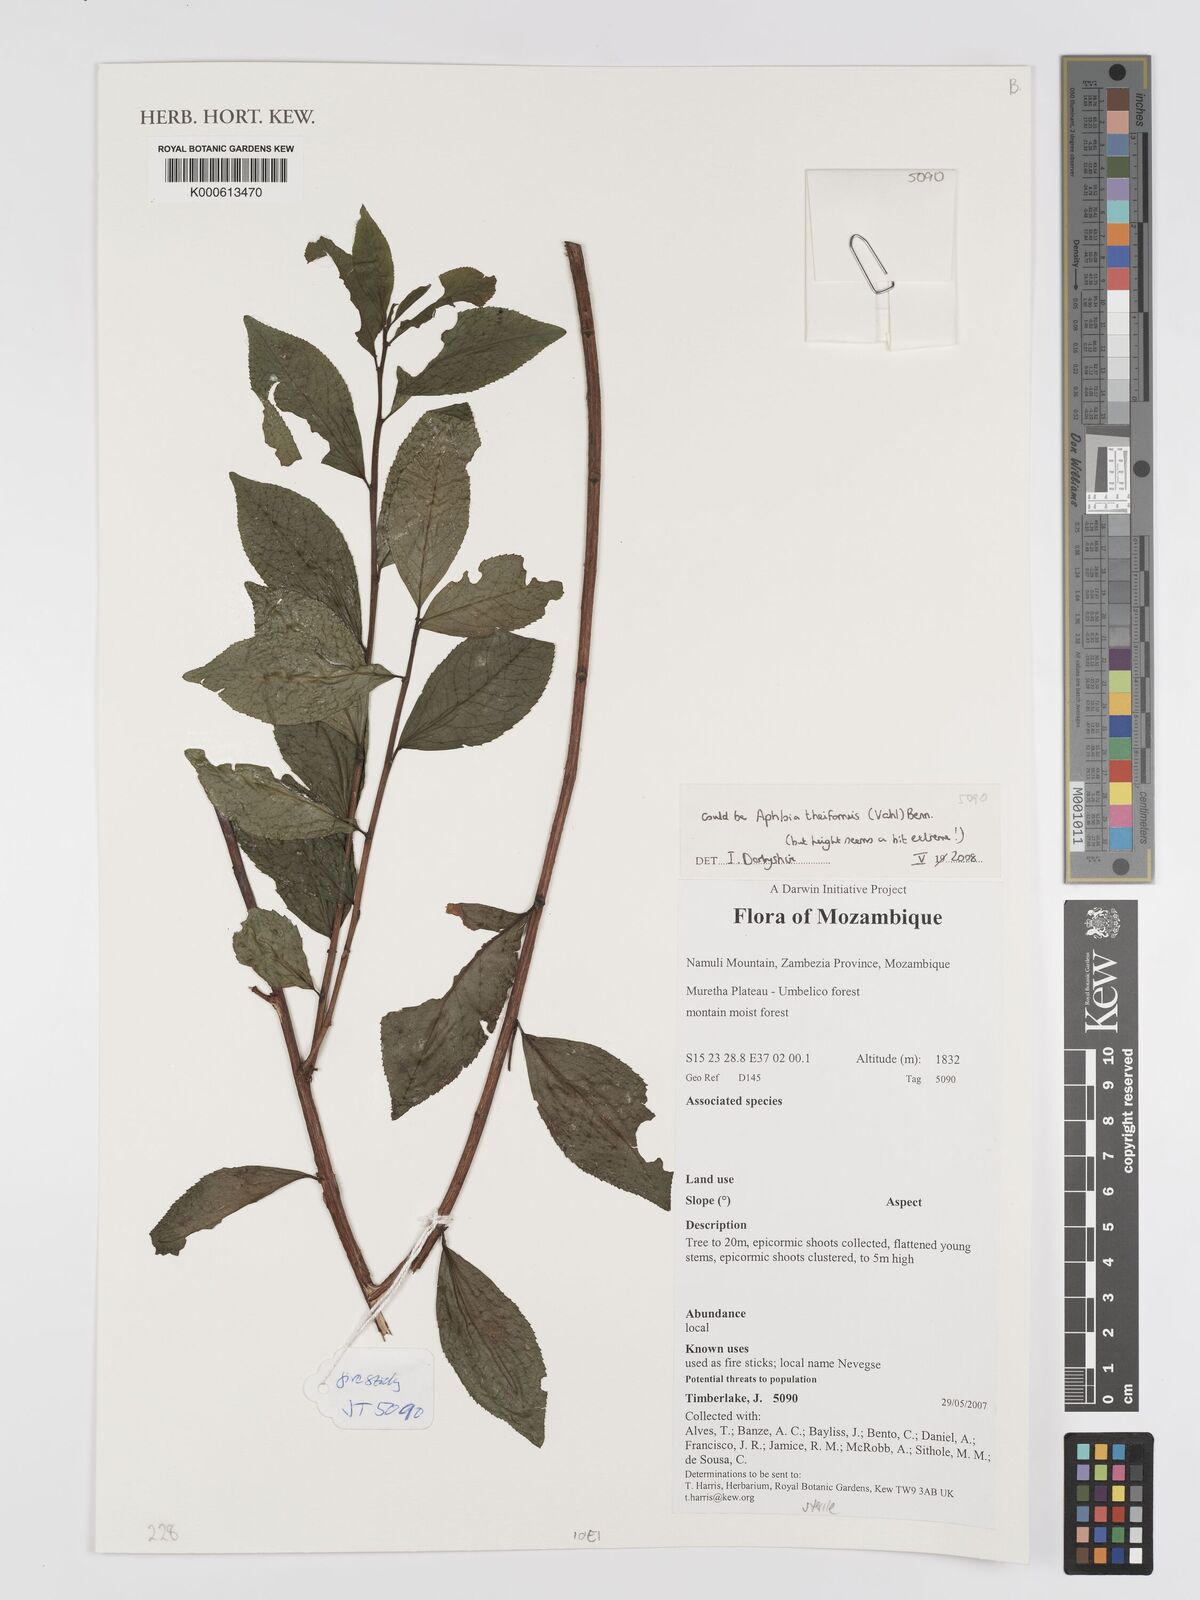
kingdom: Plantae
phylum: Tracheophyta
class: Magnoliopsida
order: Crossosomatales
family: Aphloiaceae
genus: Aphloia
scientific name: Aphloia
